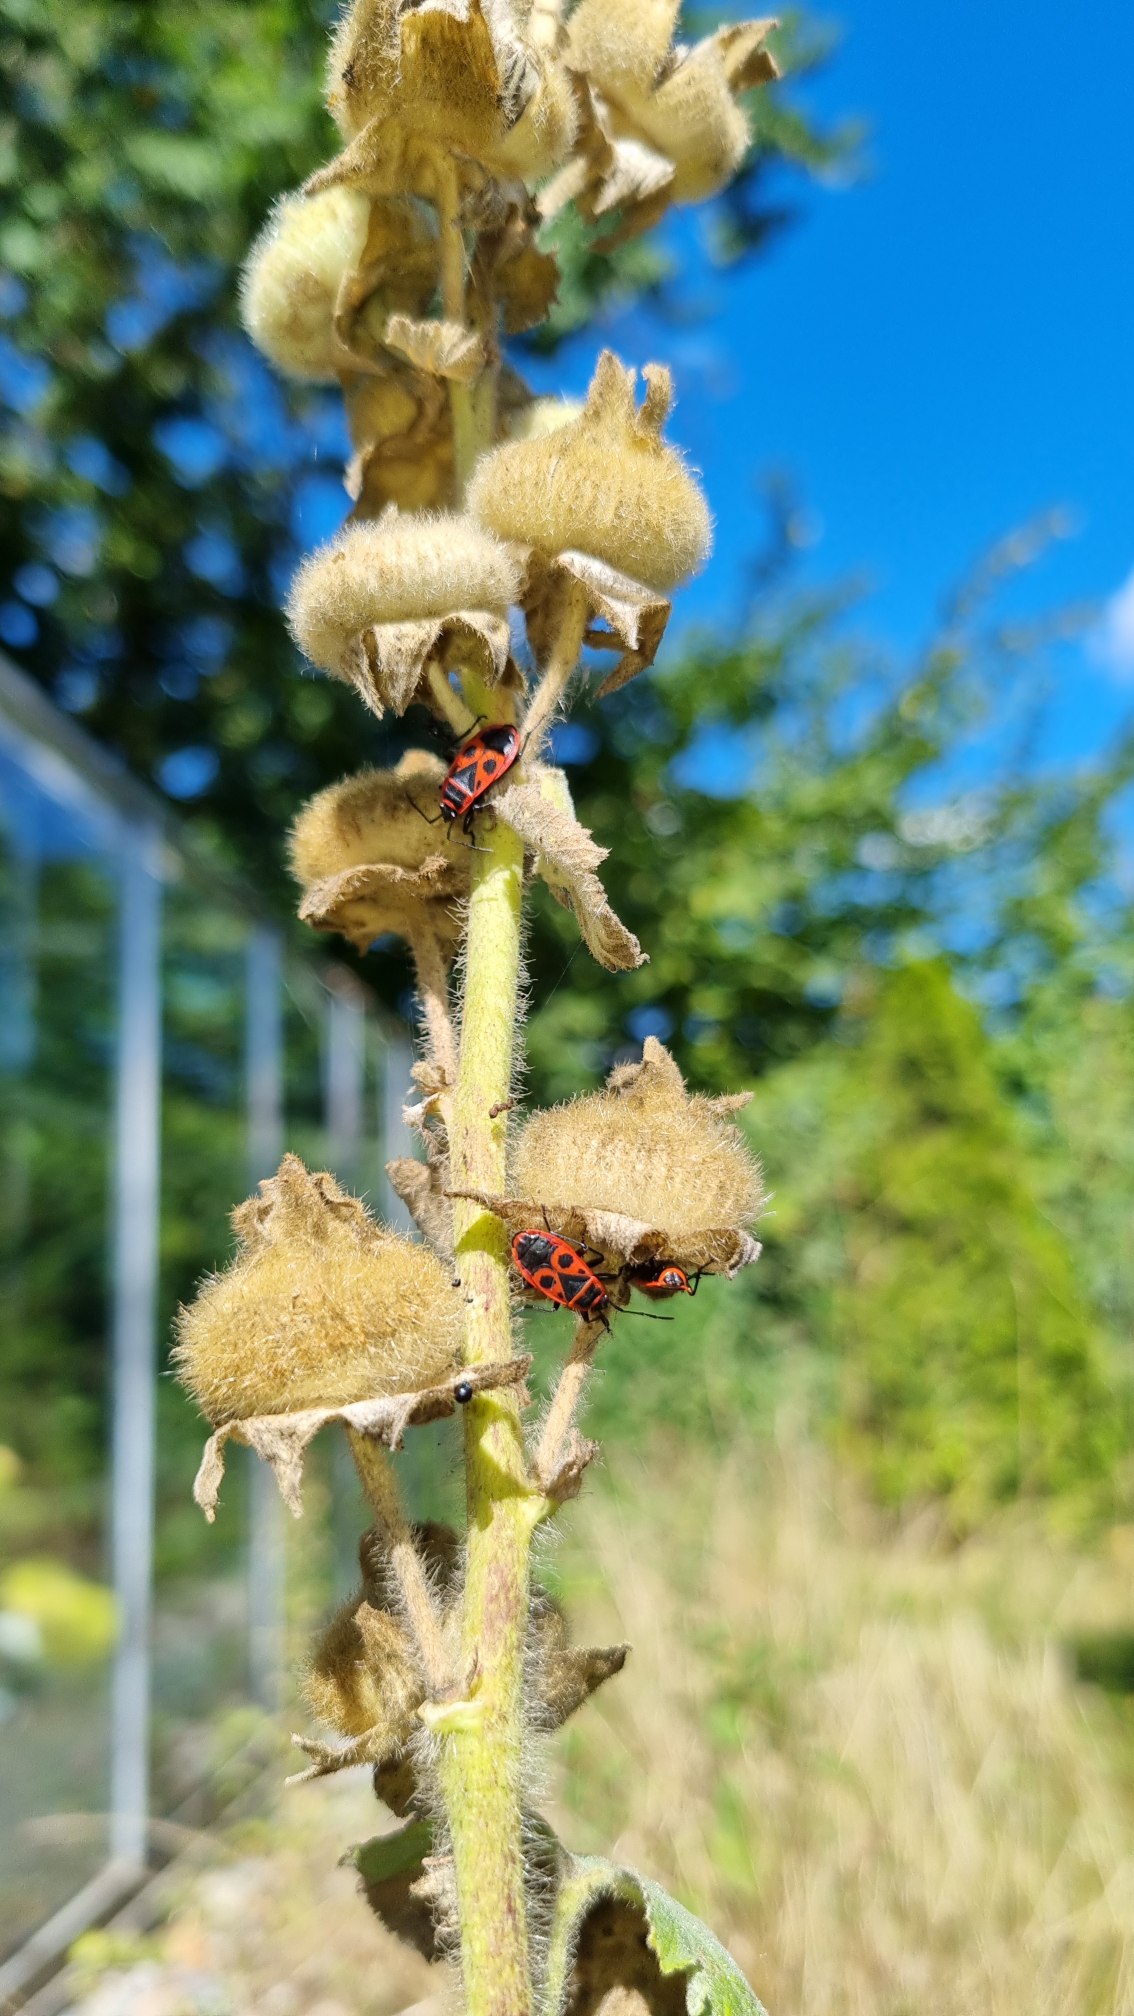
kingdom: Animalia
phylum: Arthropoda
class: Insecta
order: Hemiptera
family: Pyrrhocoridae
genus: Pyrrhocoris
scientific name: Pyrrhocoris apterus
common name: Ildtæge
